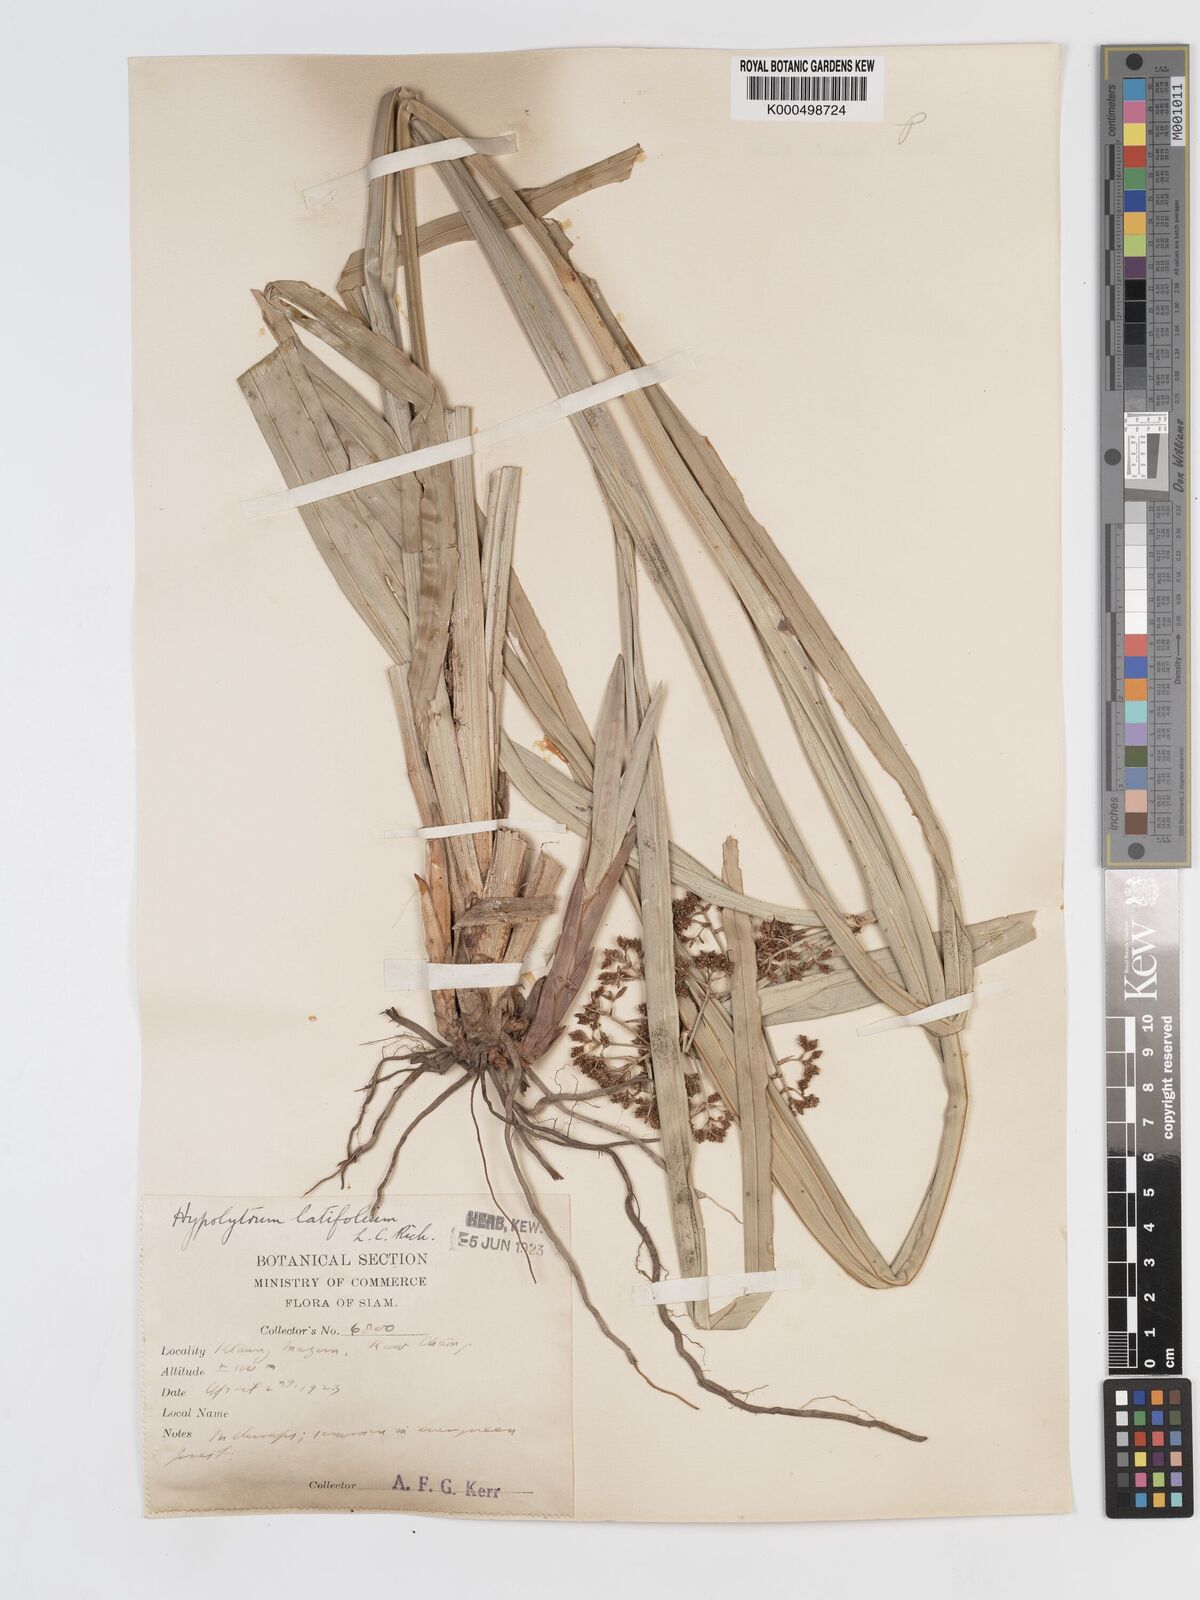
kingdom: Plantae
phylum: Tracheophyta
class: Liliopsida
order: Poales
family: Cyperaceae
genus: Hypolytrum
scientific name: Hypolytrum nemorum
